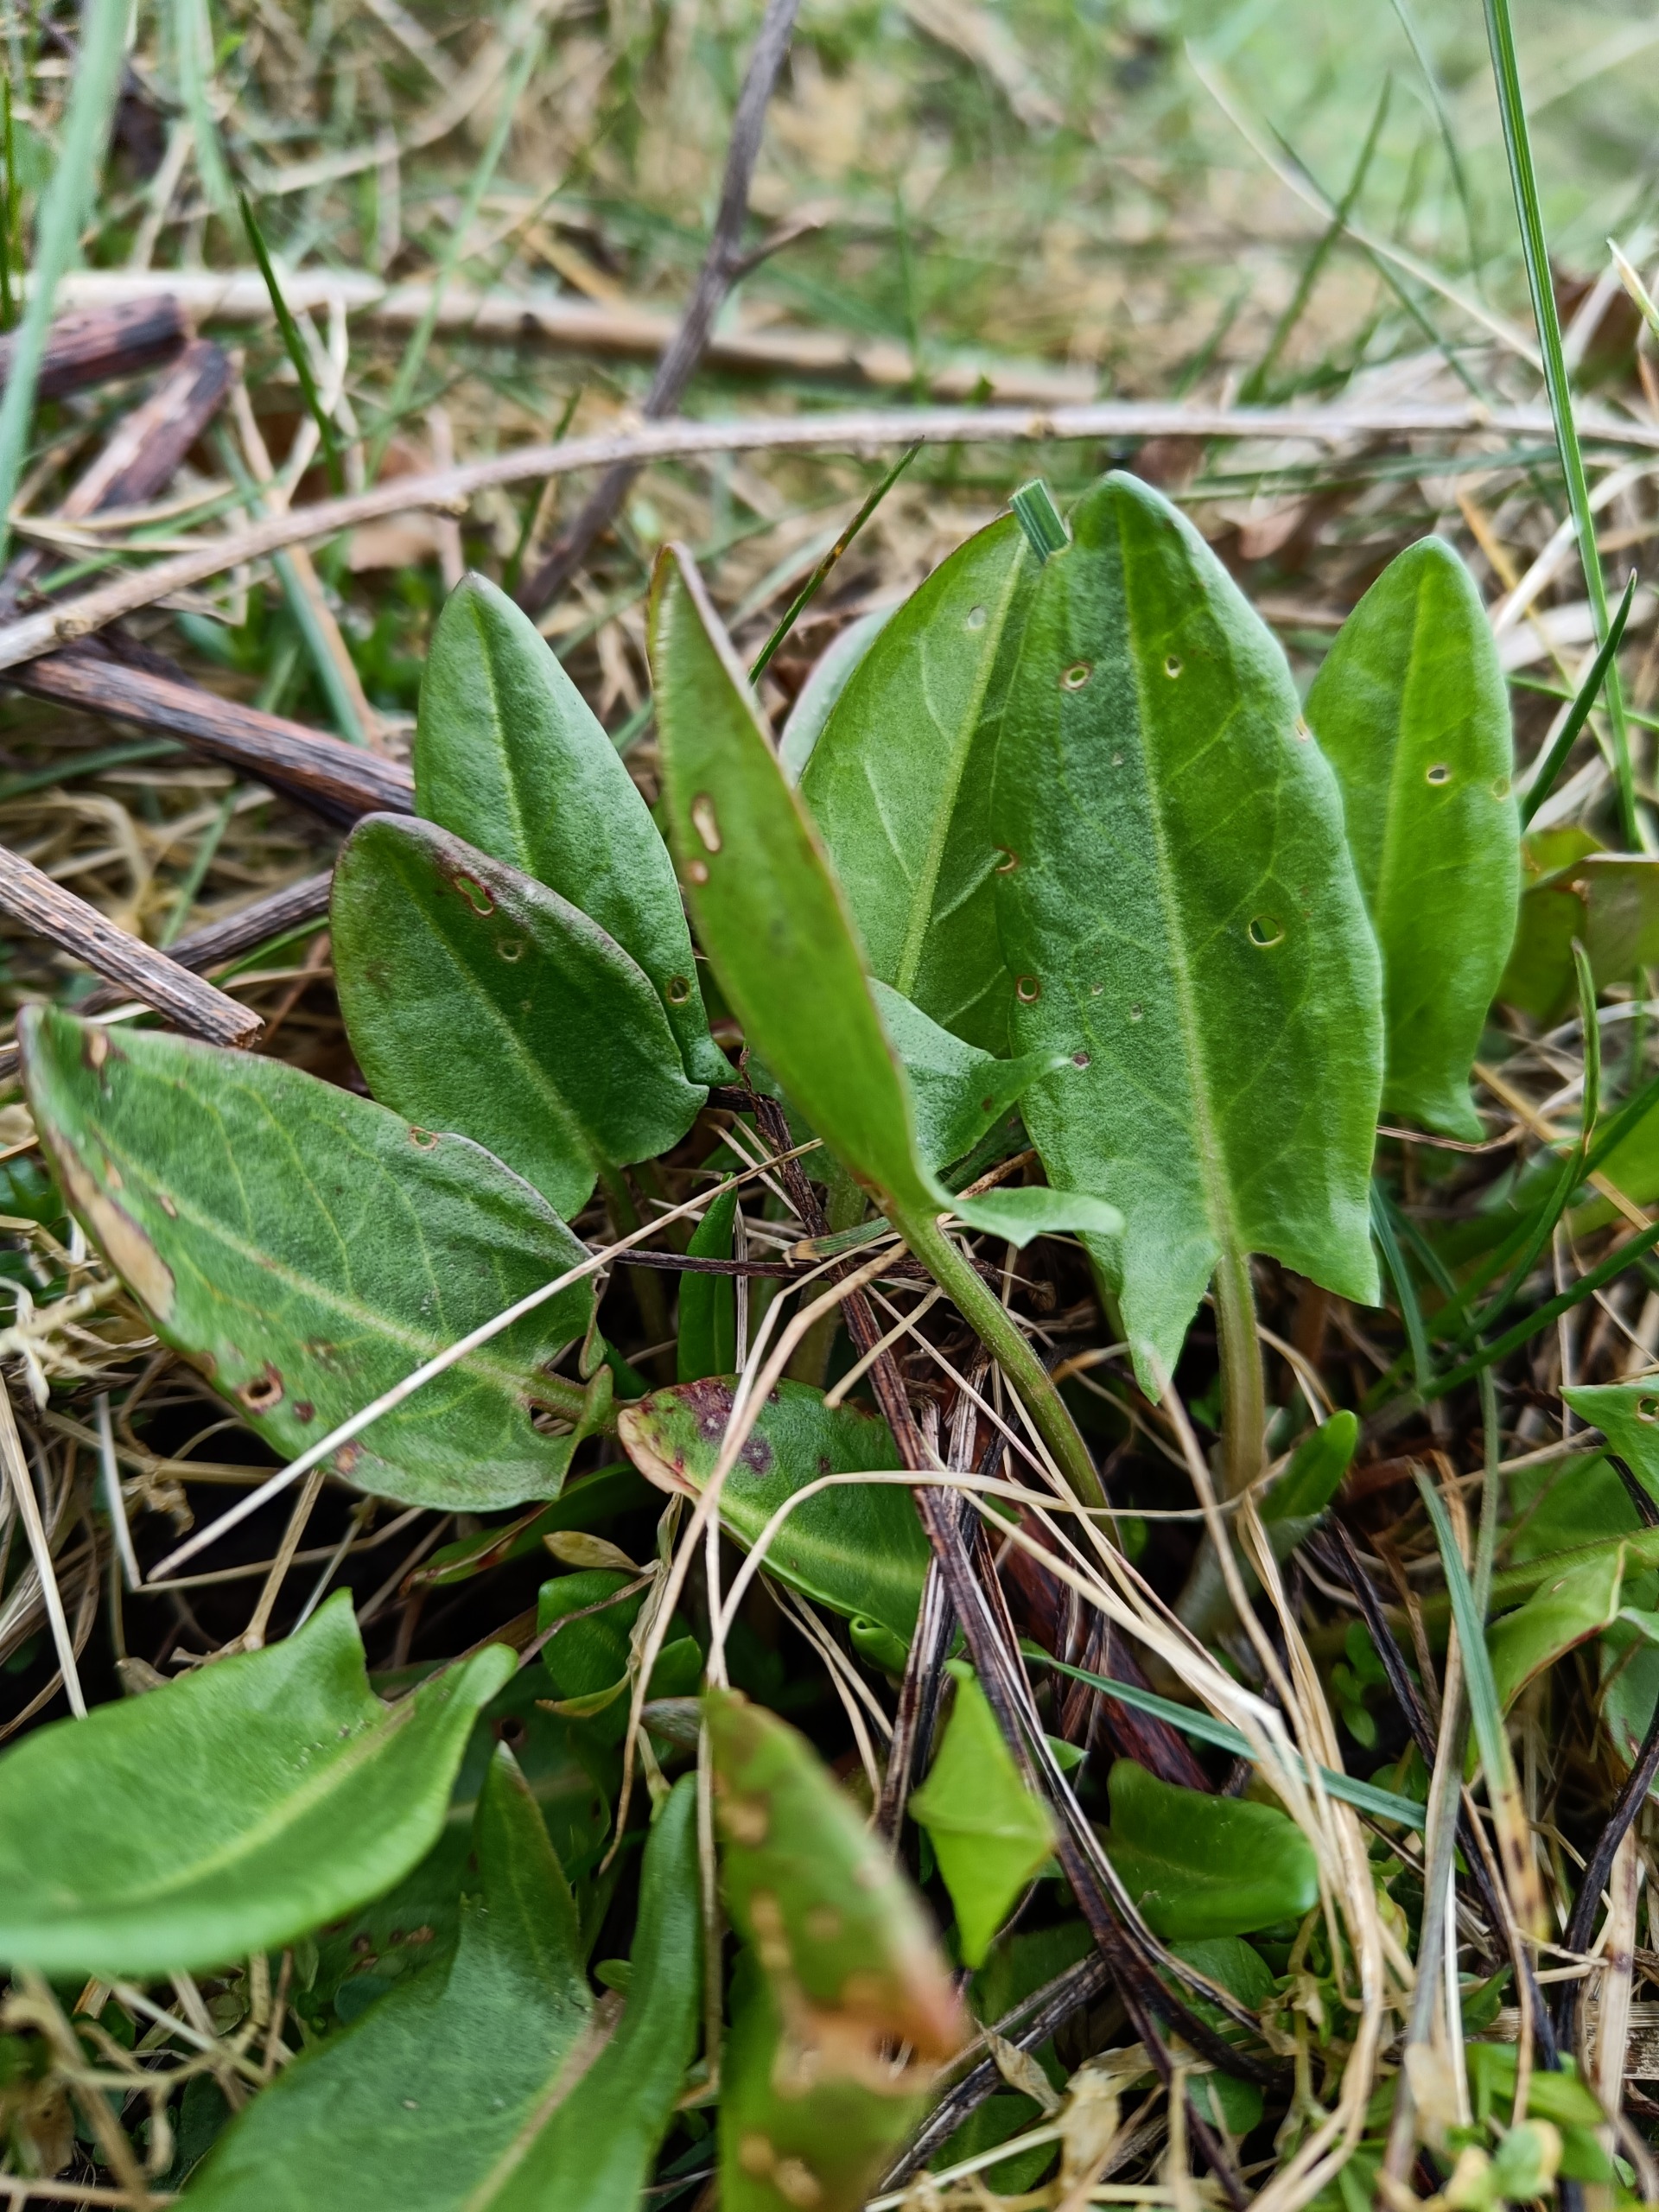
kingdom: Plantae
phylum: Tracheophyta
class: Magnoliopsida
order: Caryophyllales
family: Polygonaceae
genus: Rumex
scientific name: Rumex acetosa
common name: Almindelig syre
